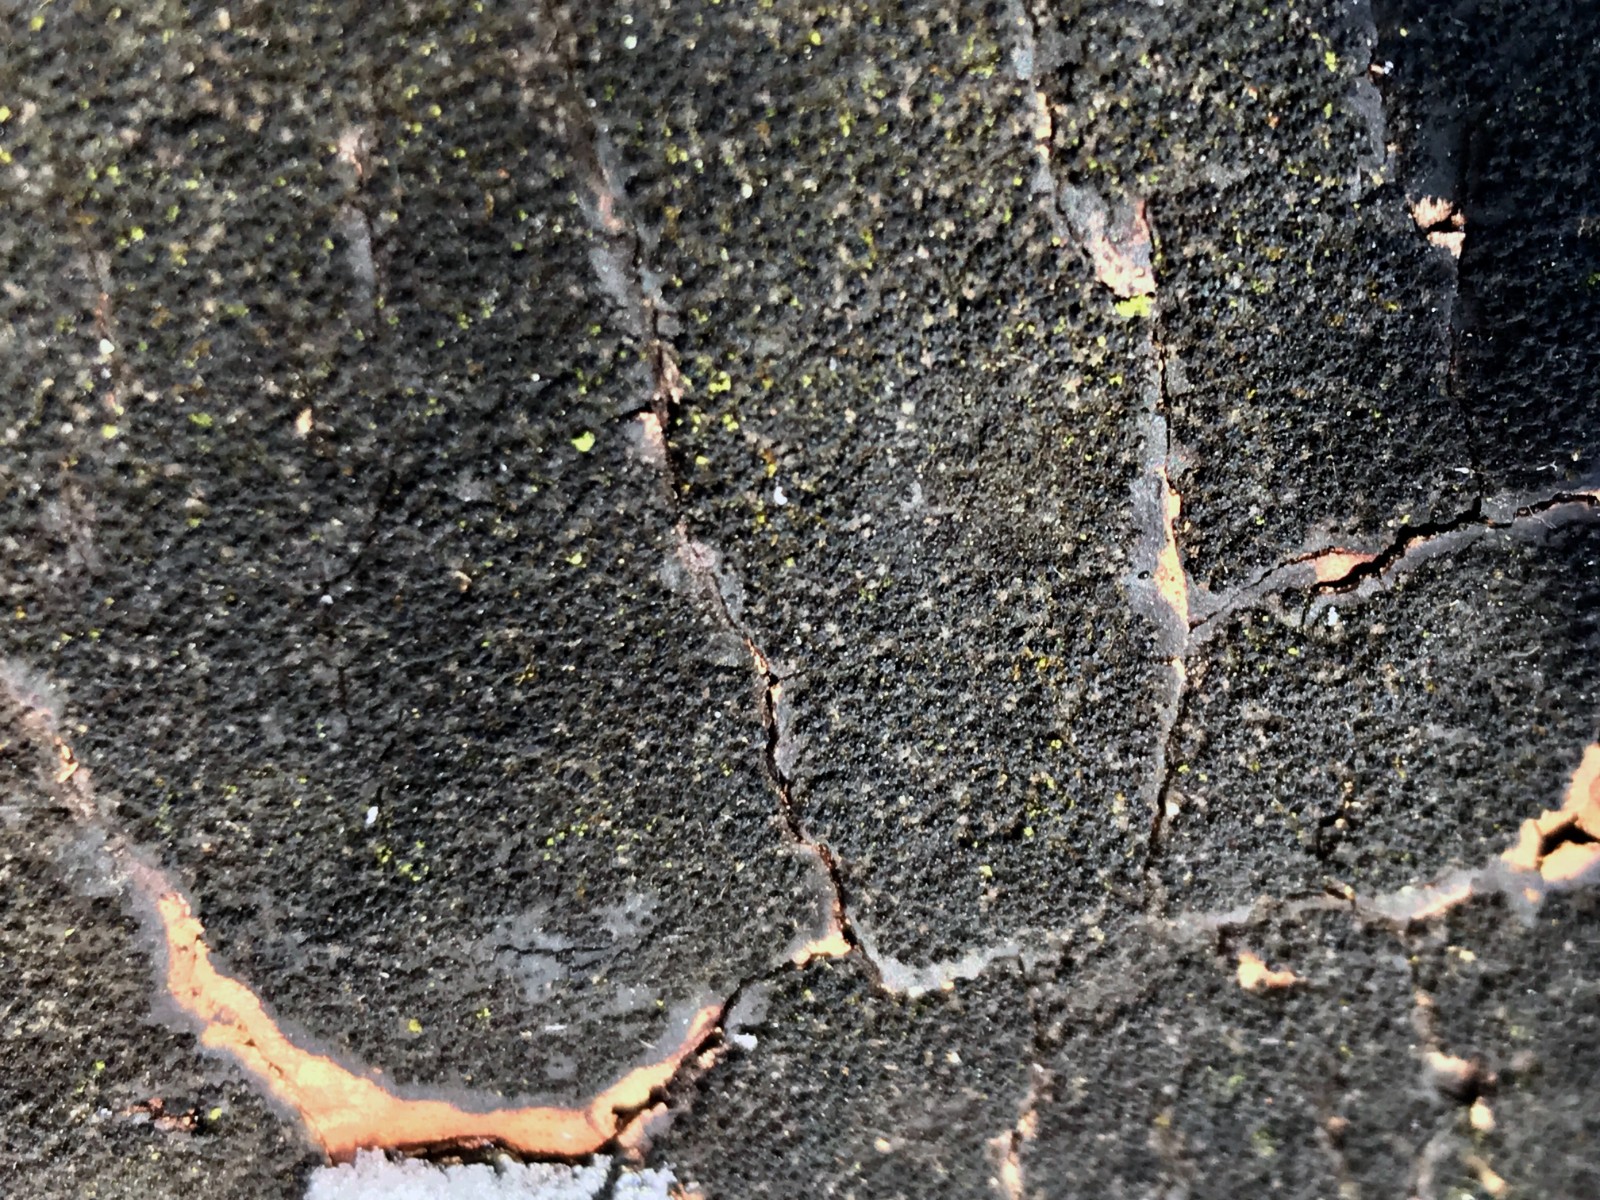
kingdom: Fungi
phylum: Ascomycota
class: Sordariomycetes
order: Xylariales
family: Diatrypaceae
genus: Eutypa
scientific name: Eutypa spinosa
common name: grov kulskorpe
